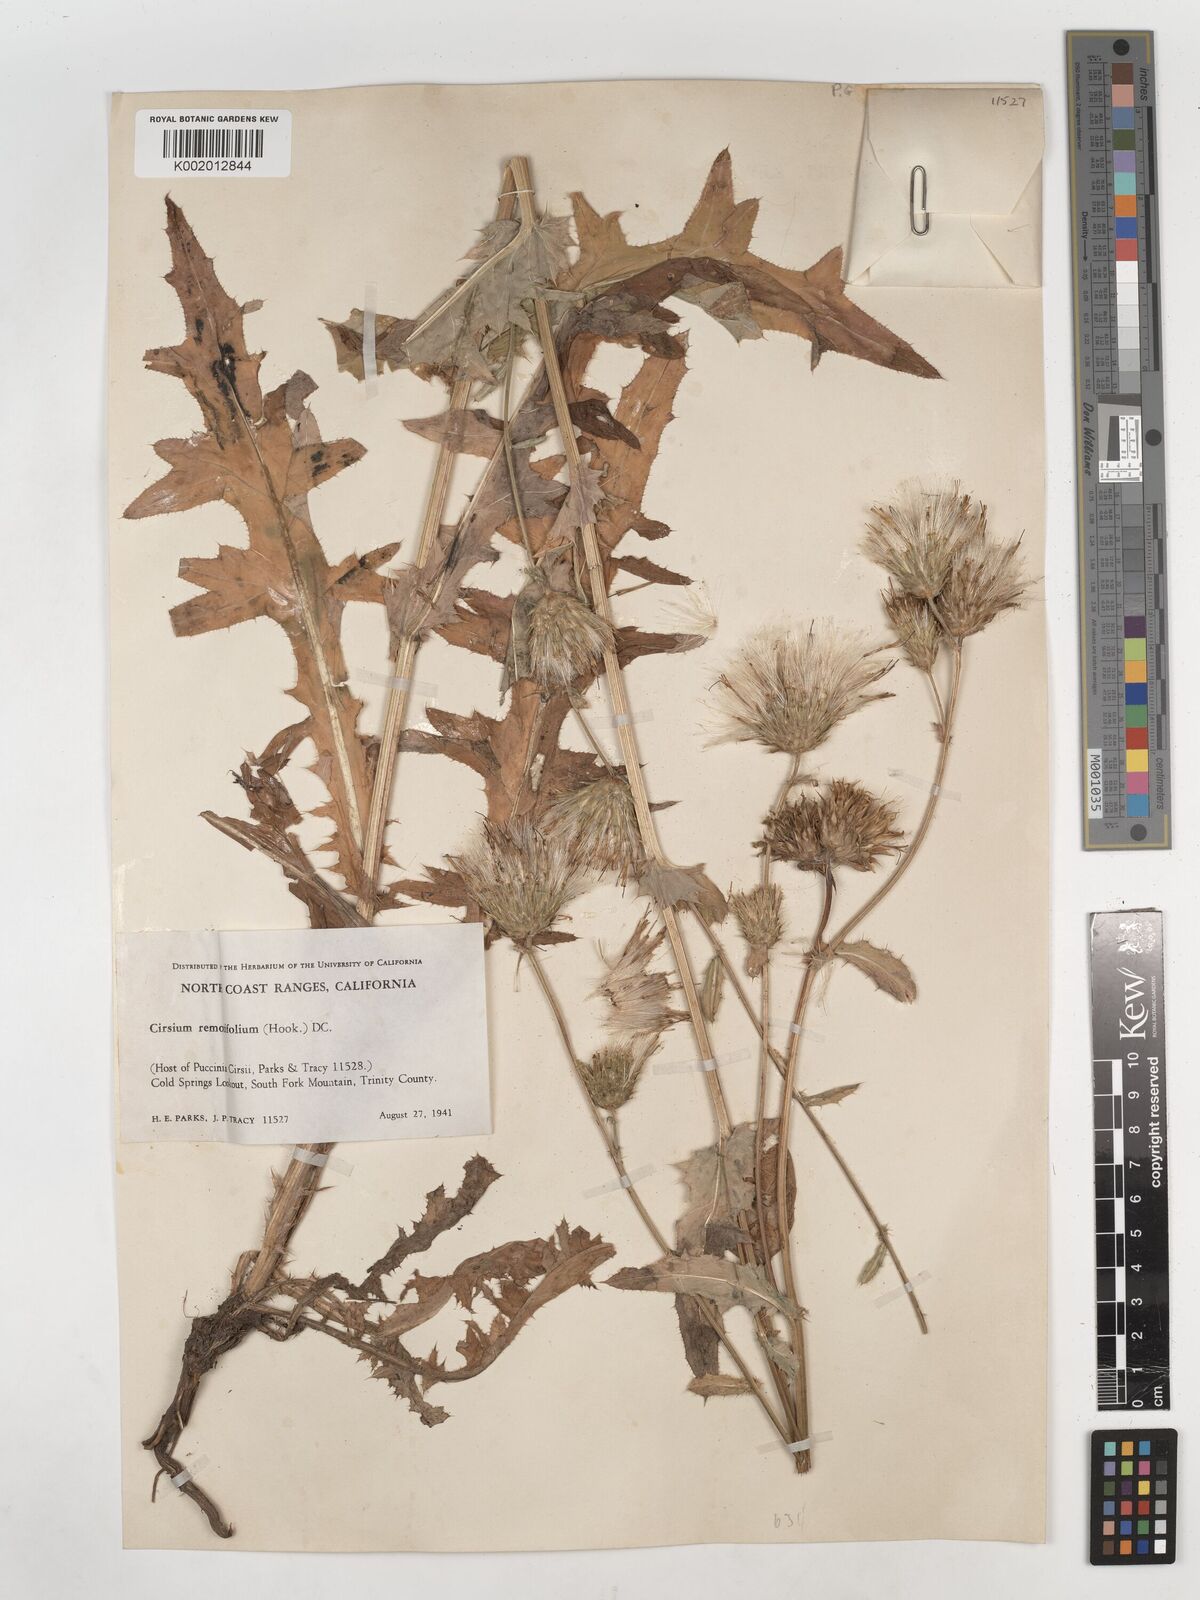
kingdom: Plantae
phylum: Tracheophyta
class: Magnoliopsida
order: Asterales
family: Asteraceae
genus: Cirsium
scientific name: Cirsium remotifolium
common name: Remote-leaf thistle
